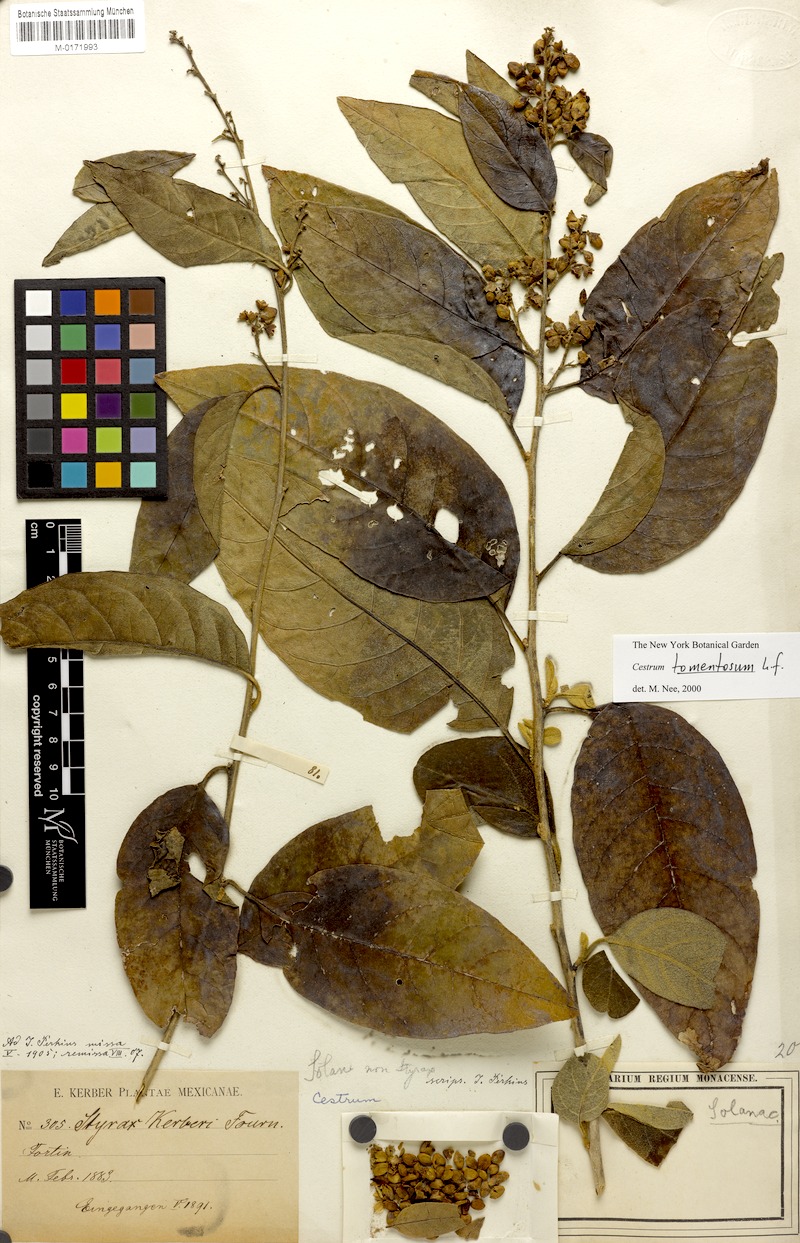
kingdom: Plantae
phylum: Tracheophyta
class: Magnoliopsida
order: Solanales
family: Solanaceae
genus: Cestrum
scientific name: Cestrum tomentosum
